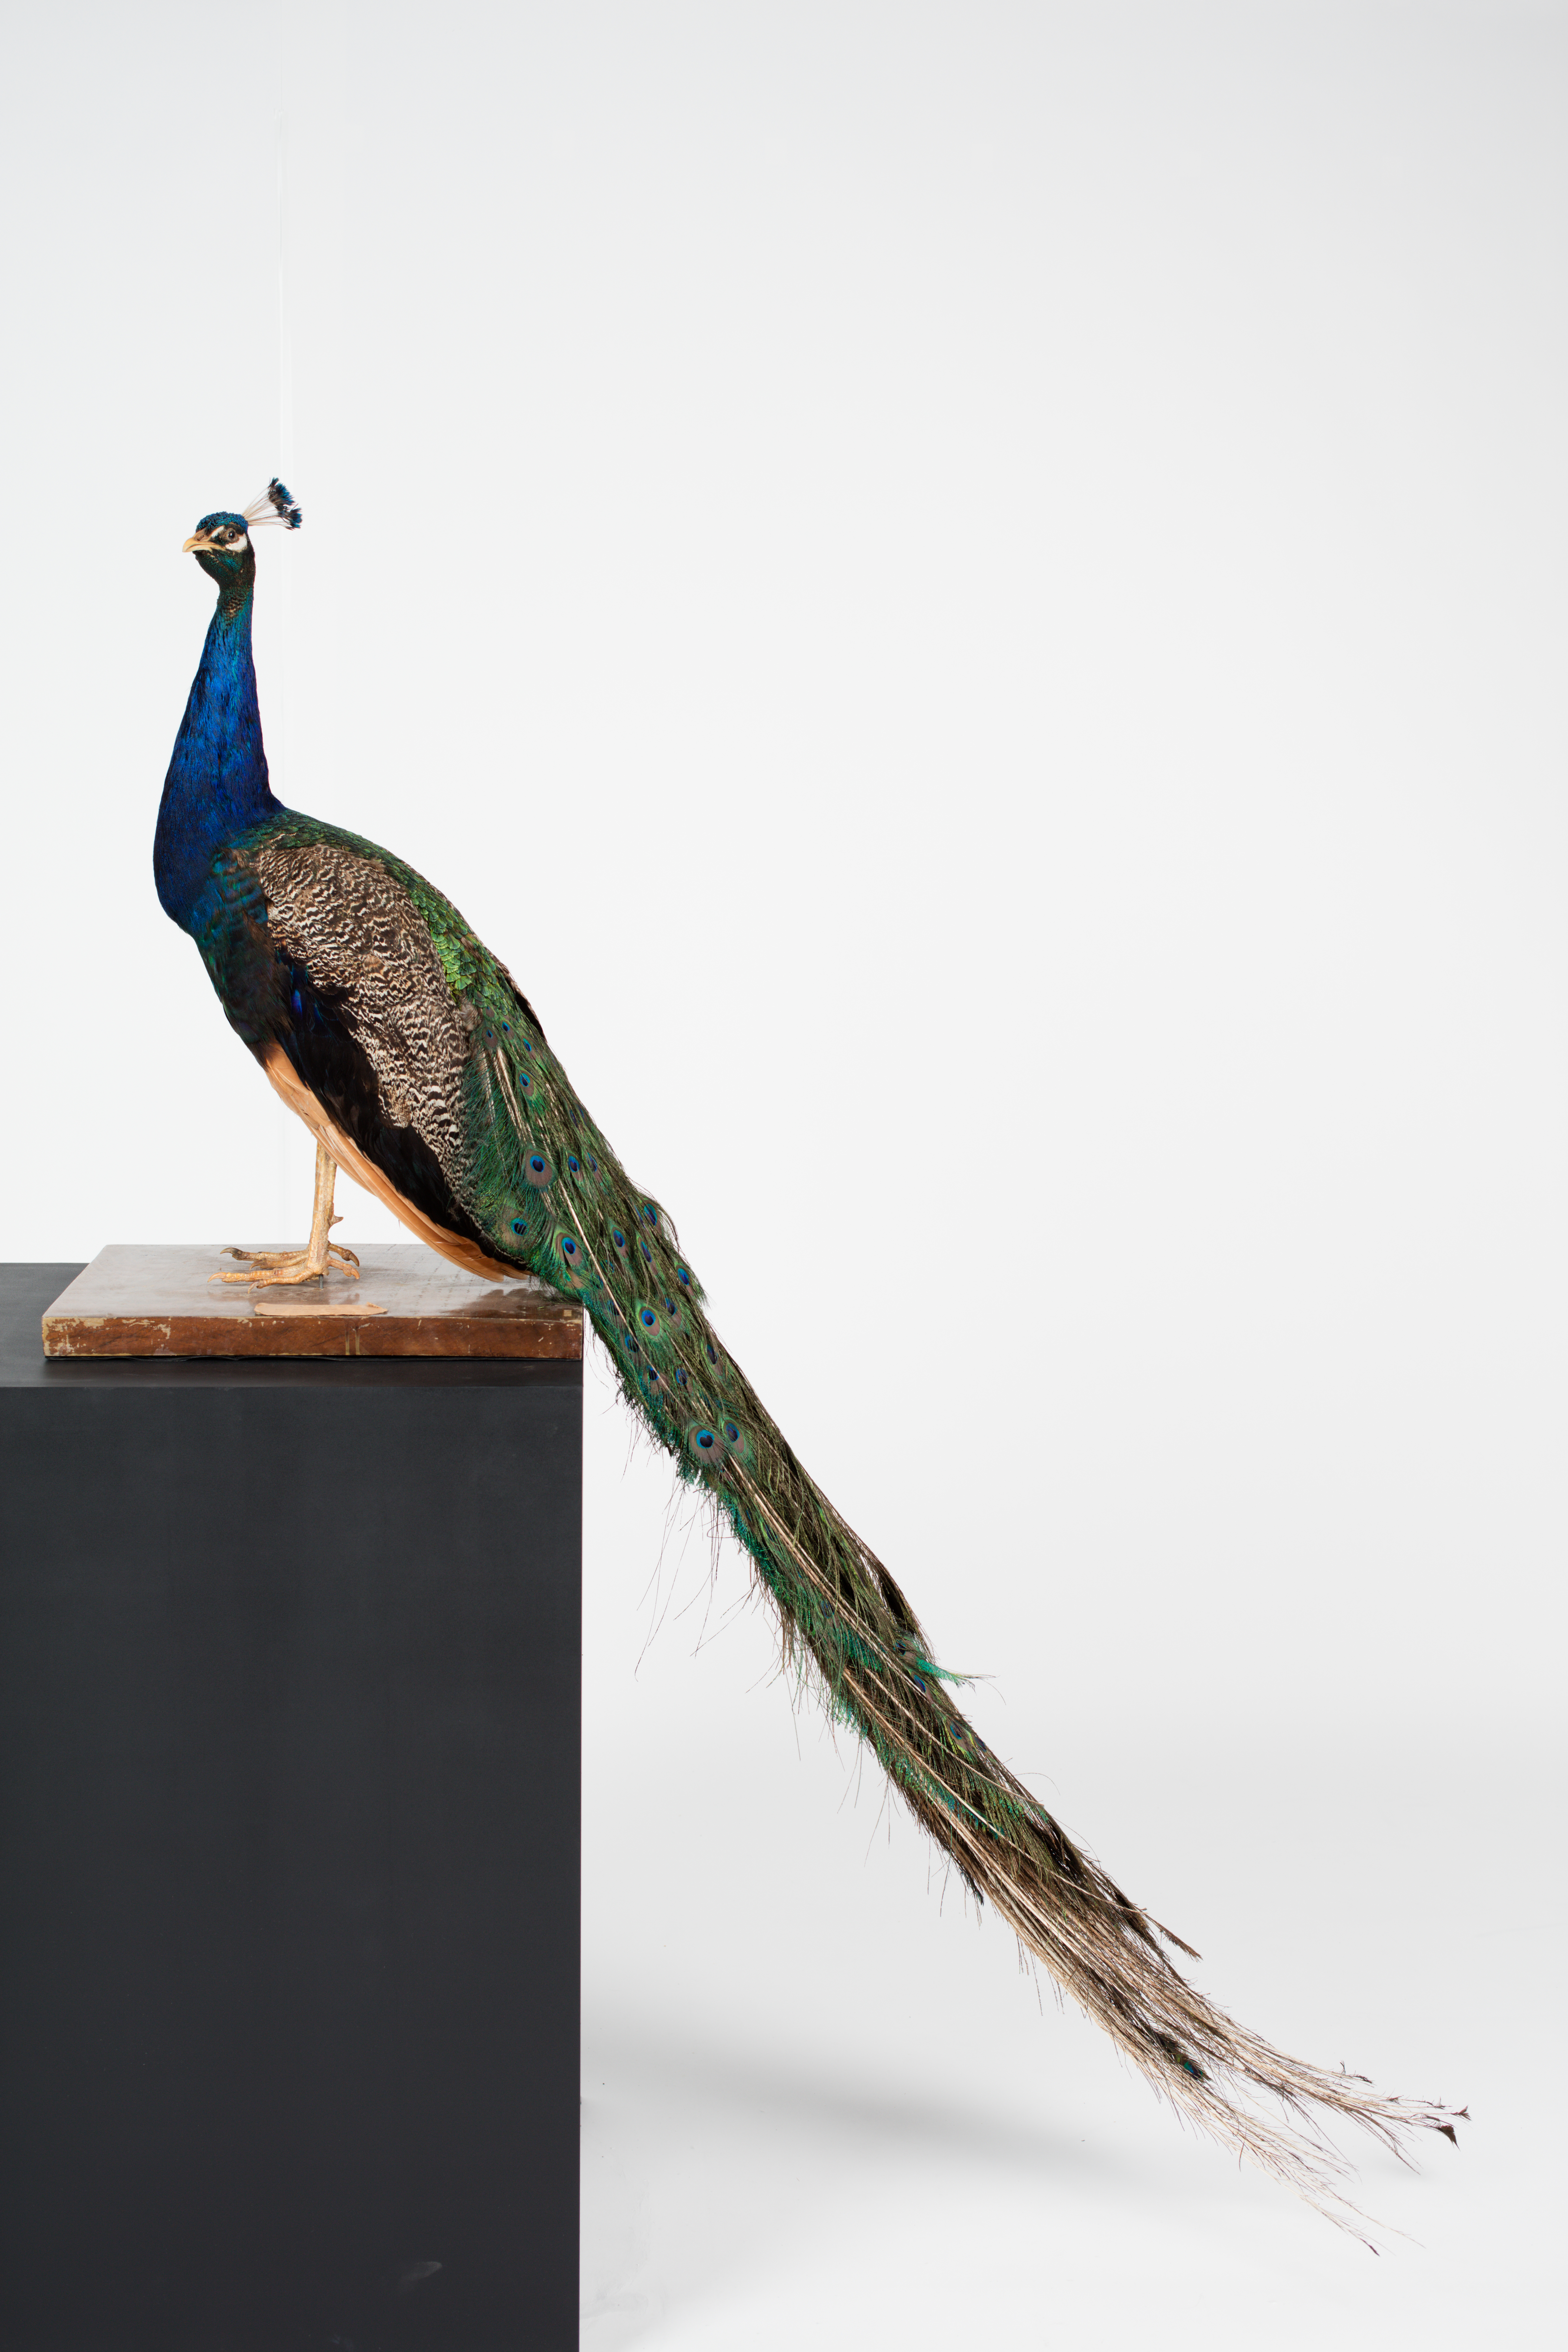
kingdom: Animalia
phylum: Chordata
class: Aves
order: Galliformes
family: Phasianidae
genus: Pavo
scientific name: Pavo cristatus
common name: Indian peafowl
